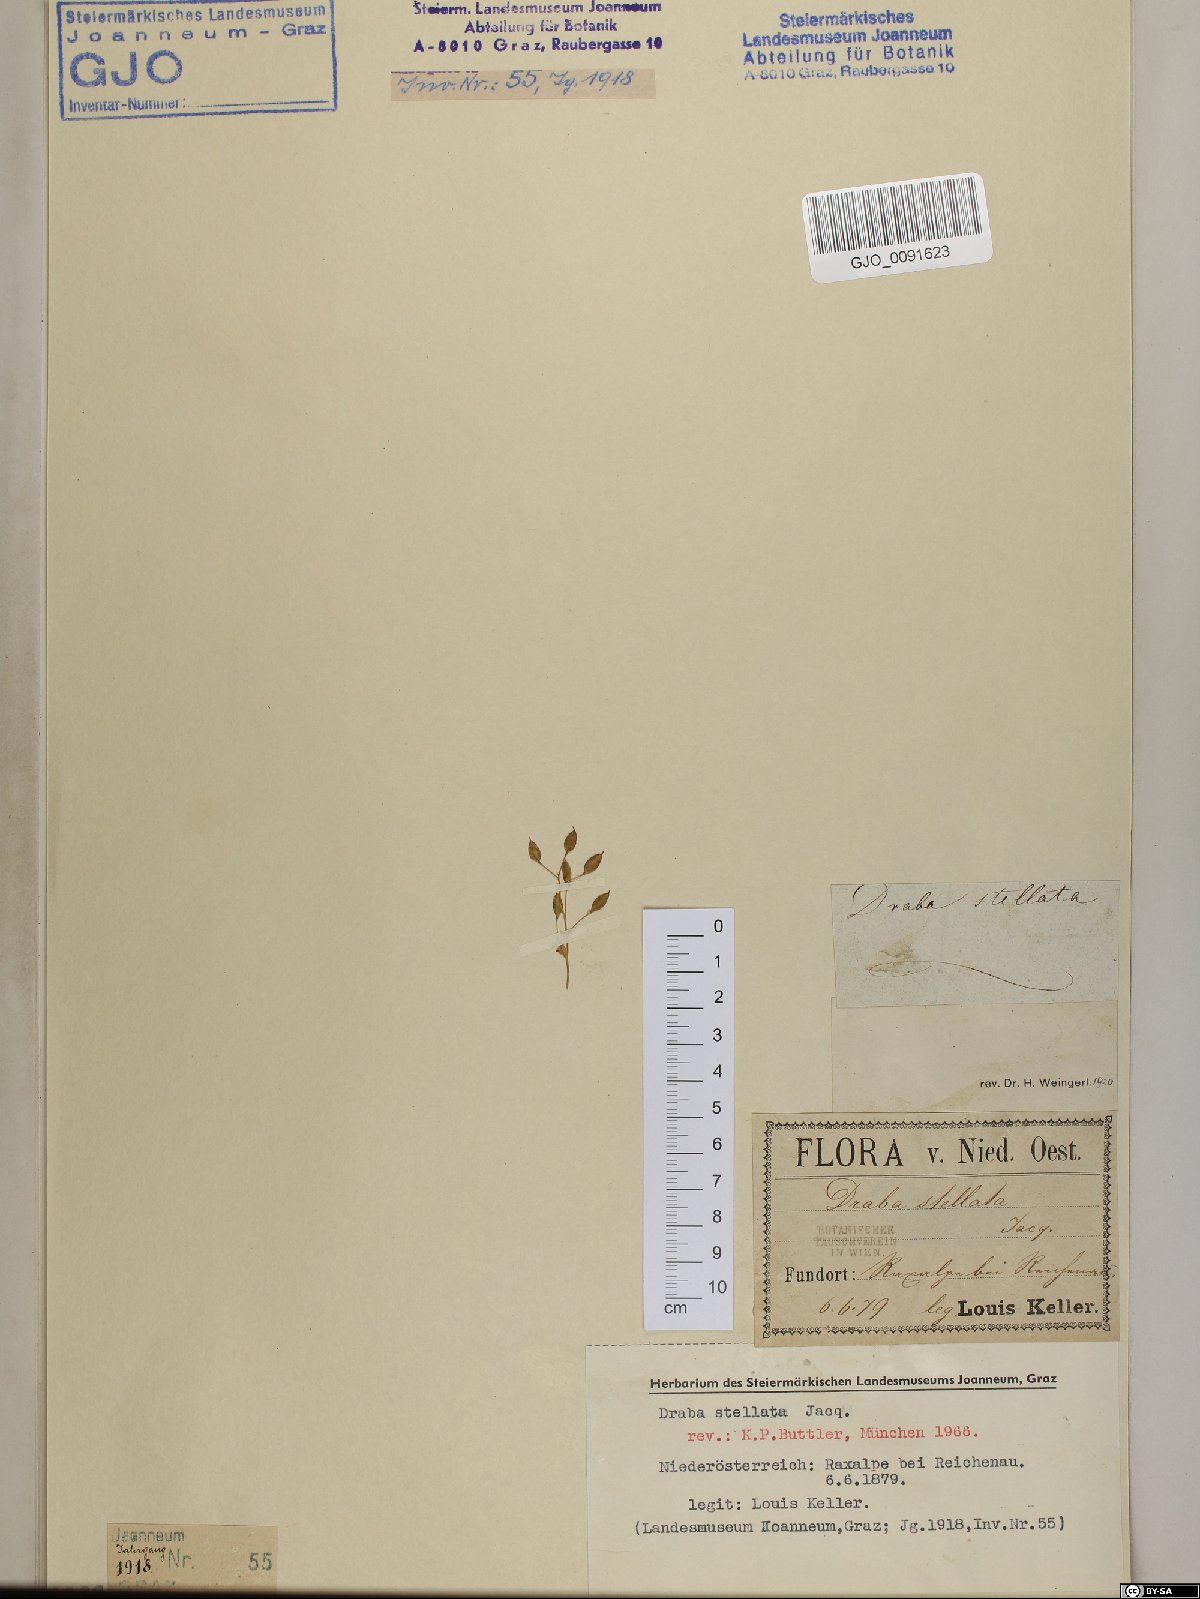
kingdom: Plantae
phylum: Tracheophyta
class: Magnoliopsida
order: Brassicales
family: Brassicaceae
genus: Draba
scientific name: Draba stellata
